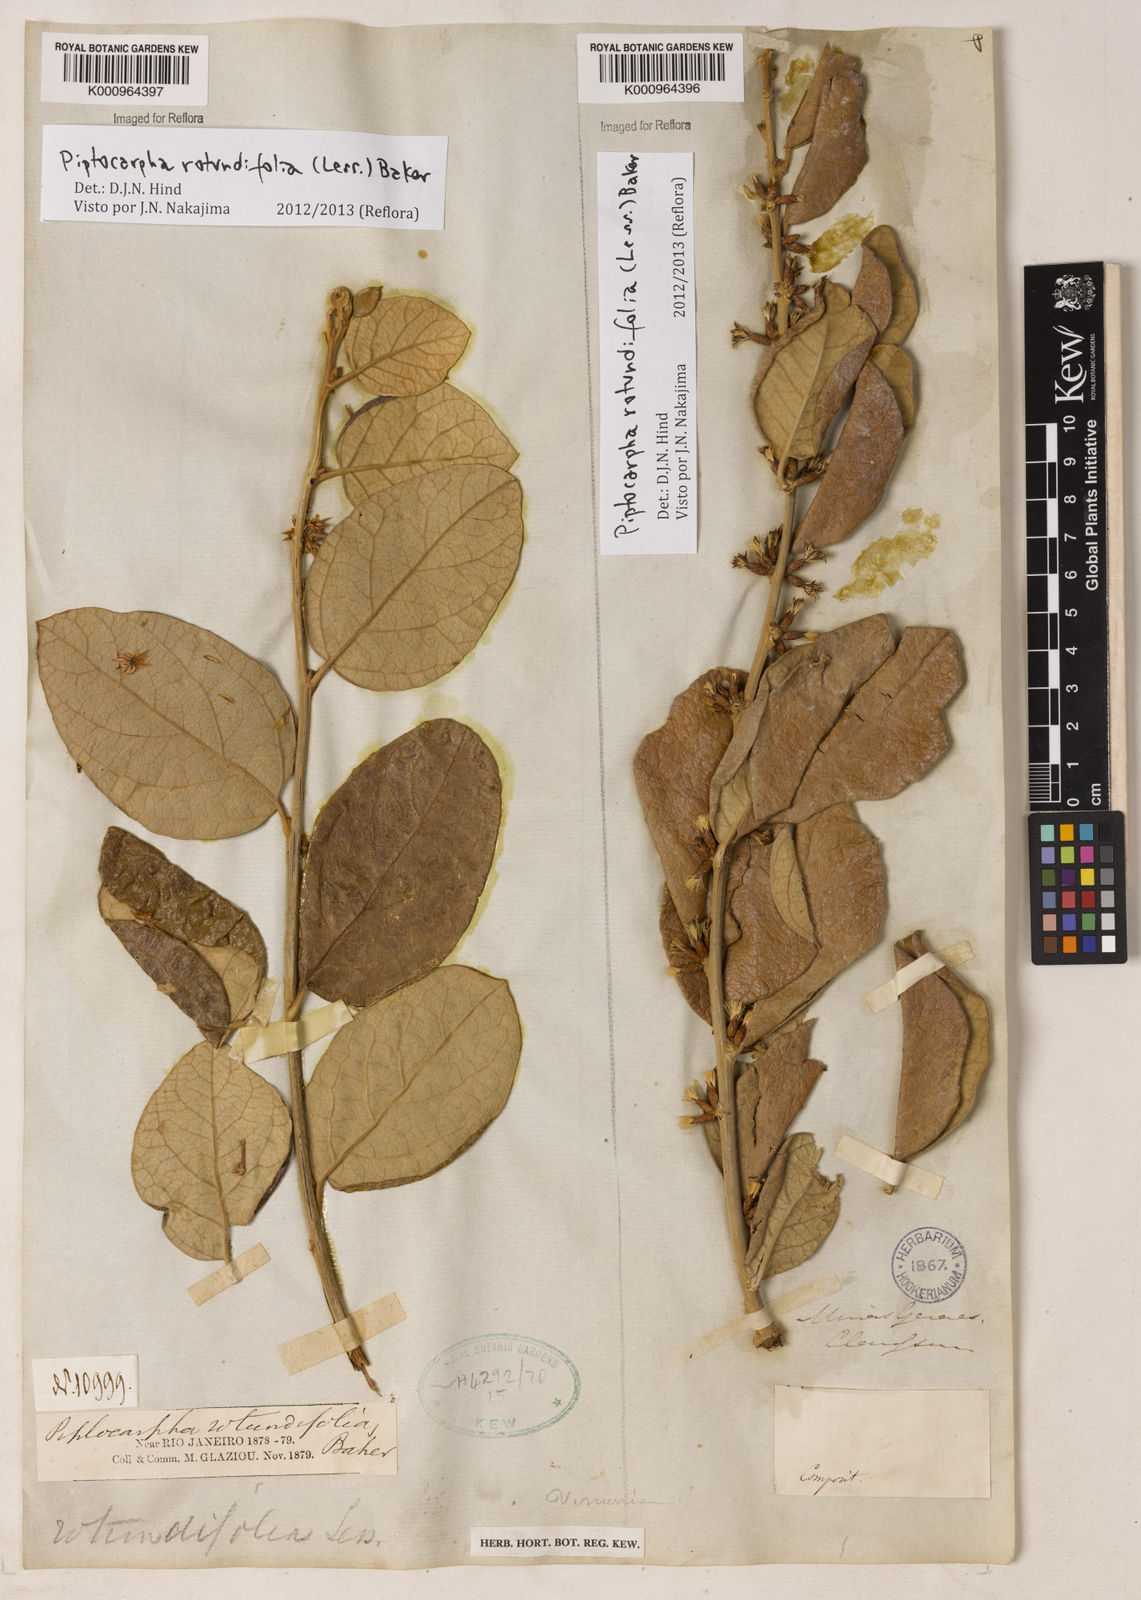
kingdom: Plantae
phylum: Tracheophyta
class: Magnoliopsida
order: Asterales
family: Asteraceae
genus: Piptocarpha
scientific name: Piptocarpha rotundifolia
